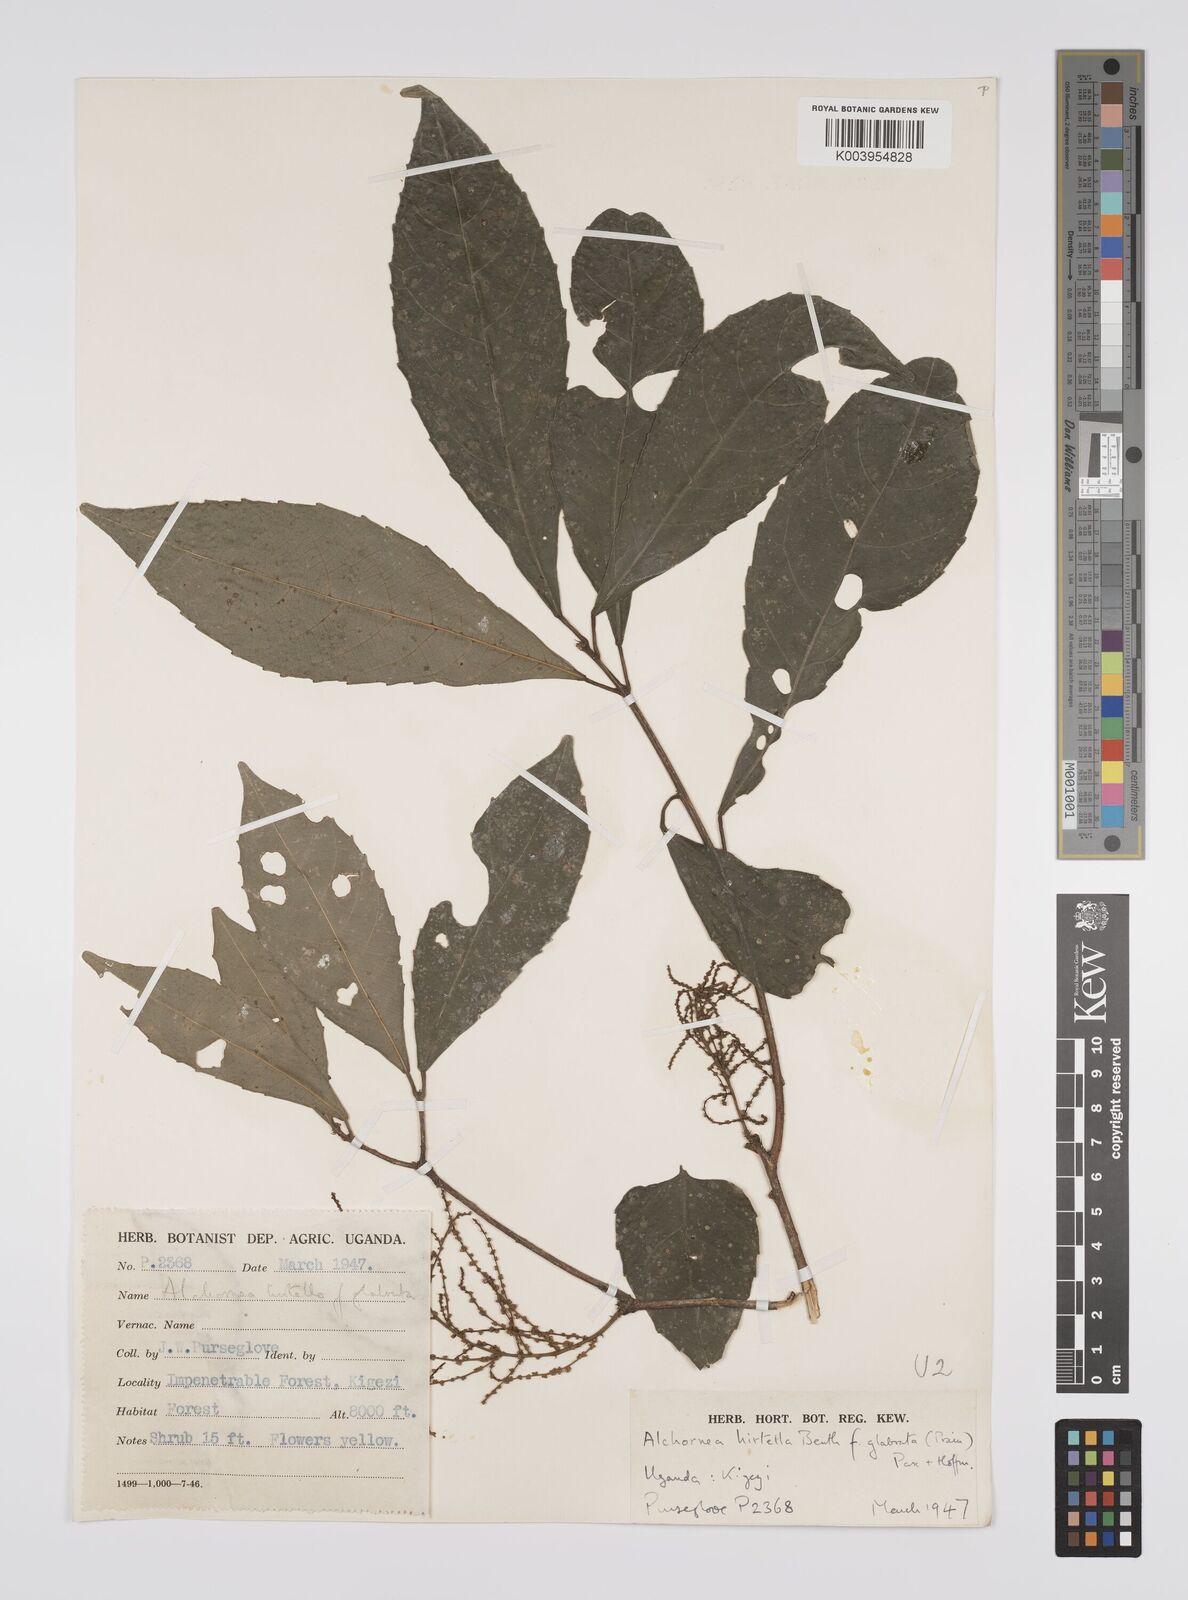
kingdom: Plantae
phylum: Tracheophyta
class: Magnoliopsida
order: Malpighiales
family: Euphorbiaceae
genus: Alchornea
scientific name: Alchornea hirtella
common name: Forest bead-string
